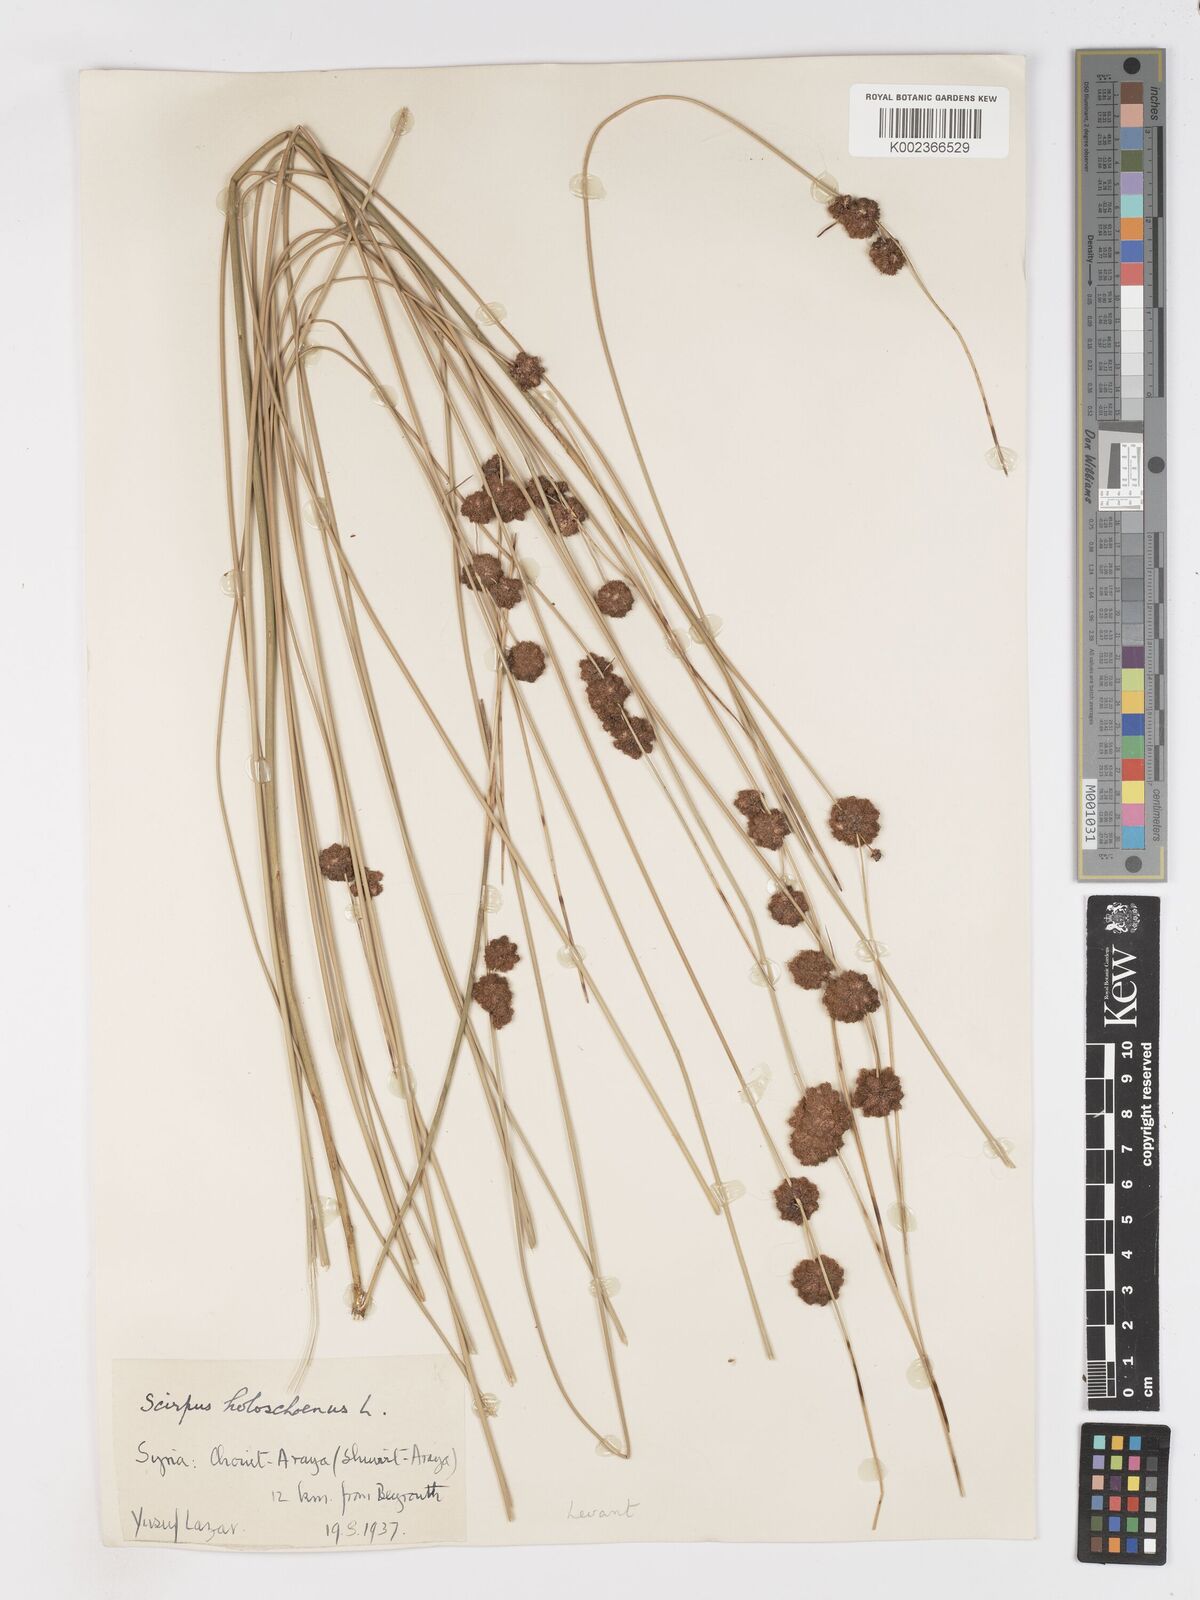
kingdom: Plantae
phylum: Tracheophyta
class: Liliopsida
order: Poales
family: Cyperaceae
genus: Scirpoides
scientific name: Scirpoides holoschoenus
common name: Round-headed club-rush
